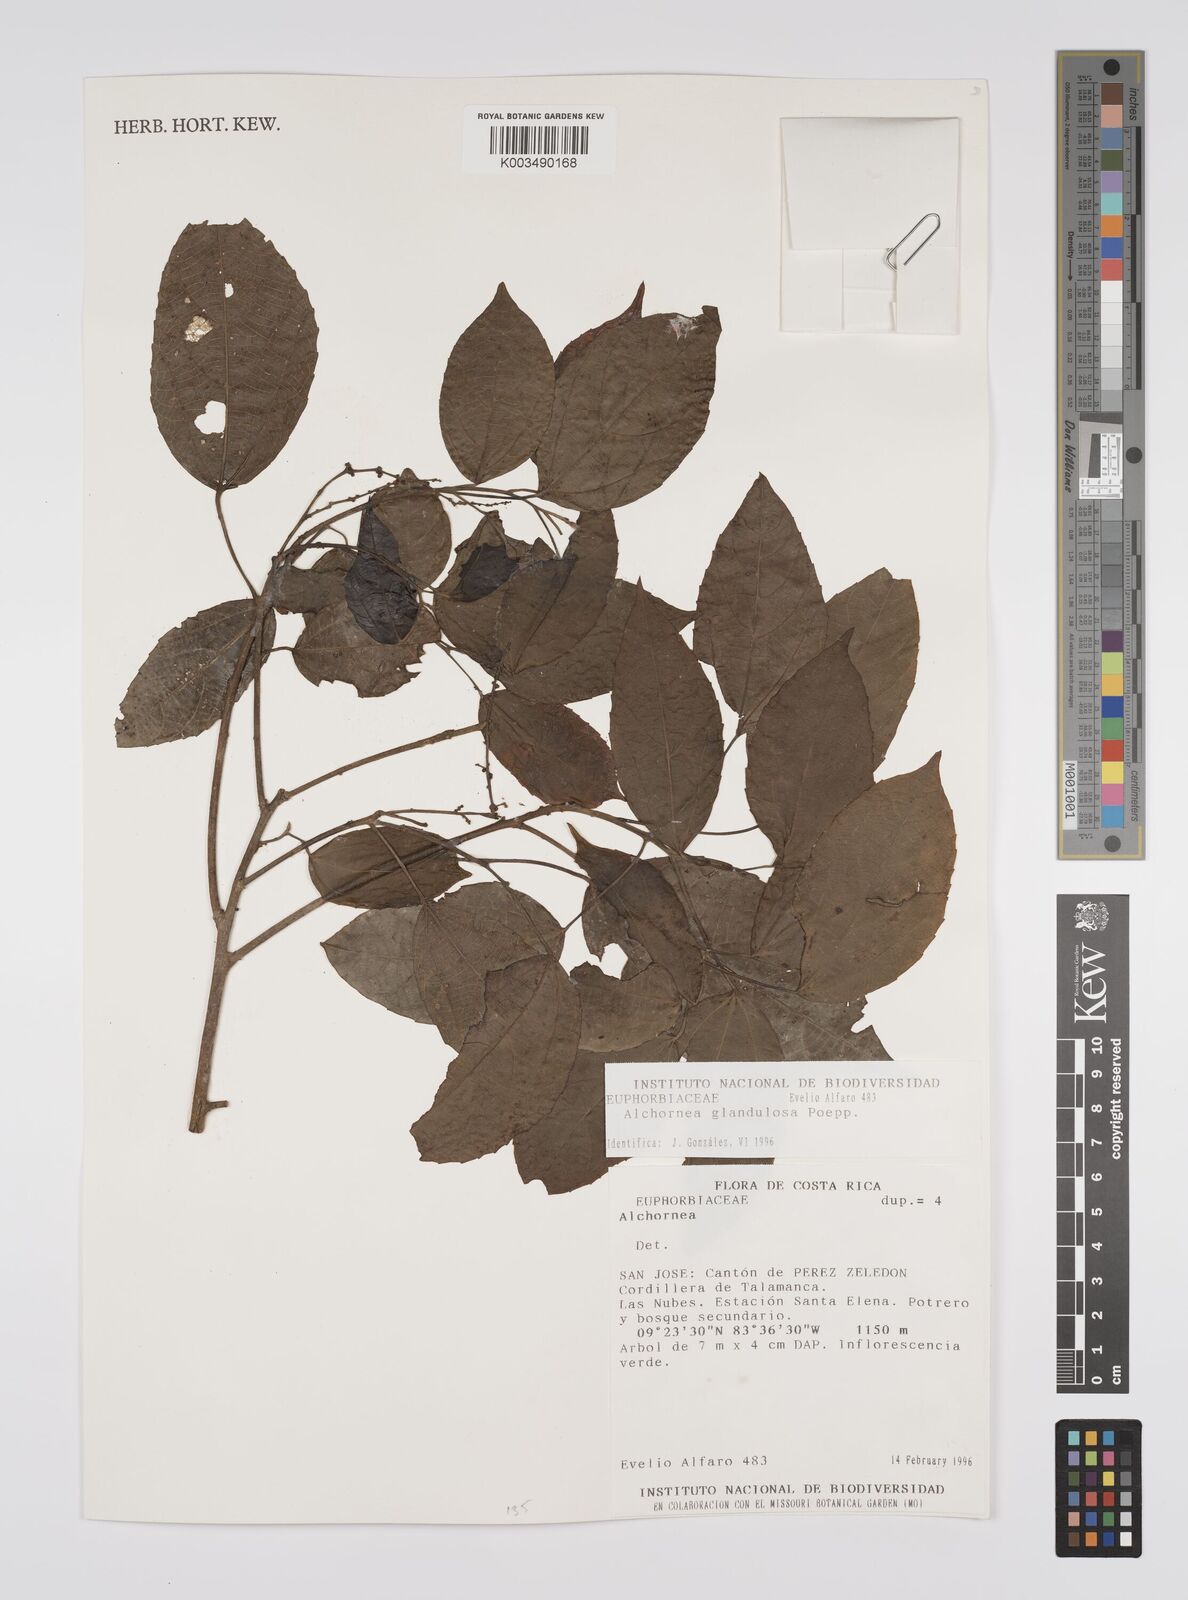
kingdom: Plantae
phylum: Tracheophyta
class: Magnoliopsida
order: Malpighiales
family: Euphorbiaceae
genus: Alchornea
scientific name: Alchornea glandulosa
